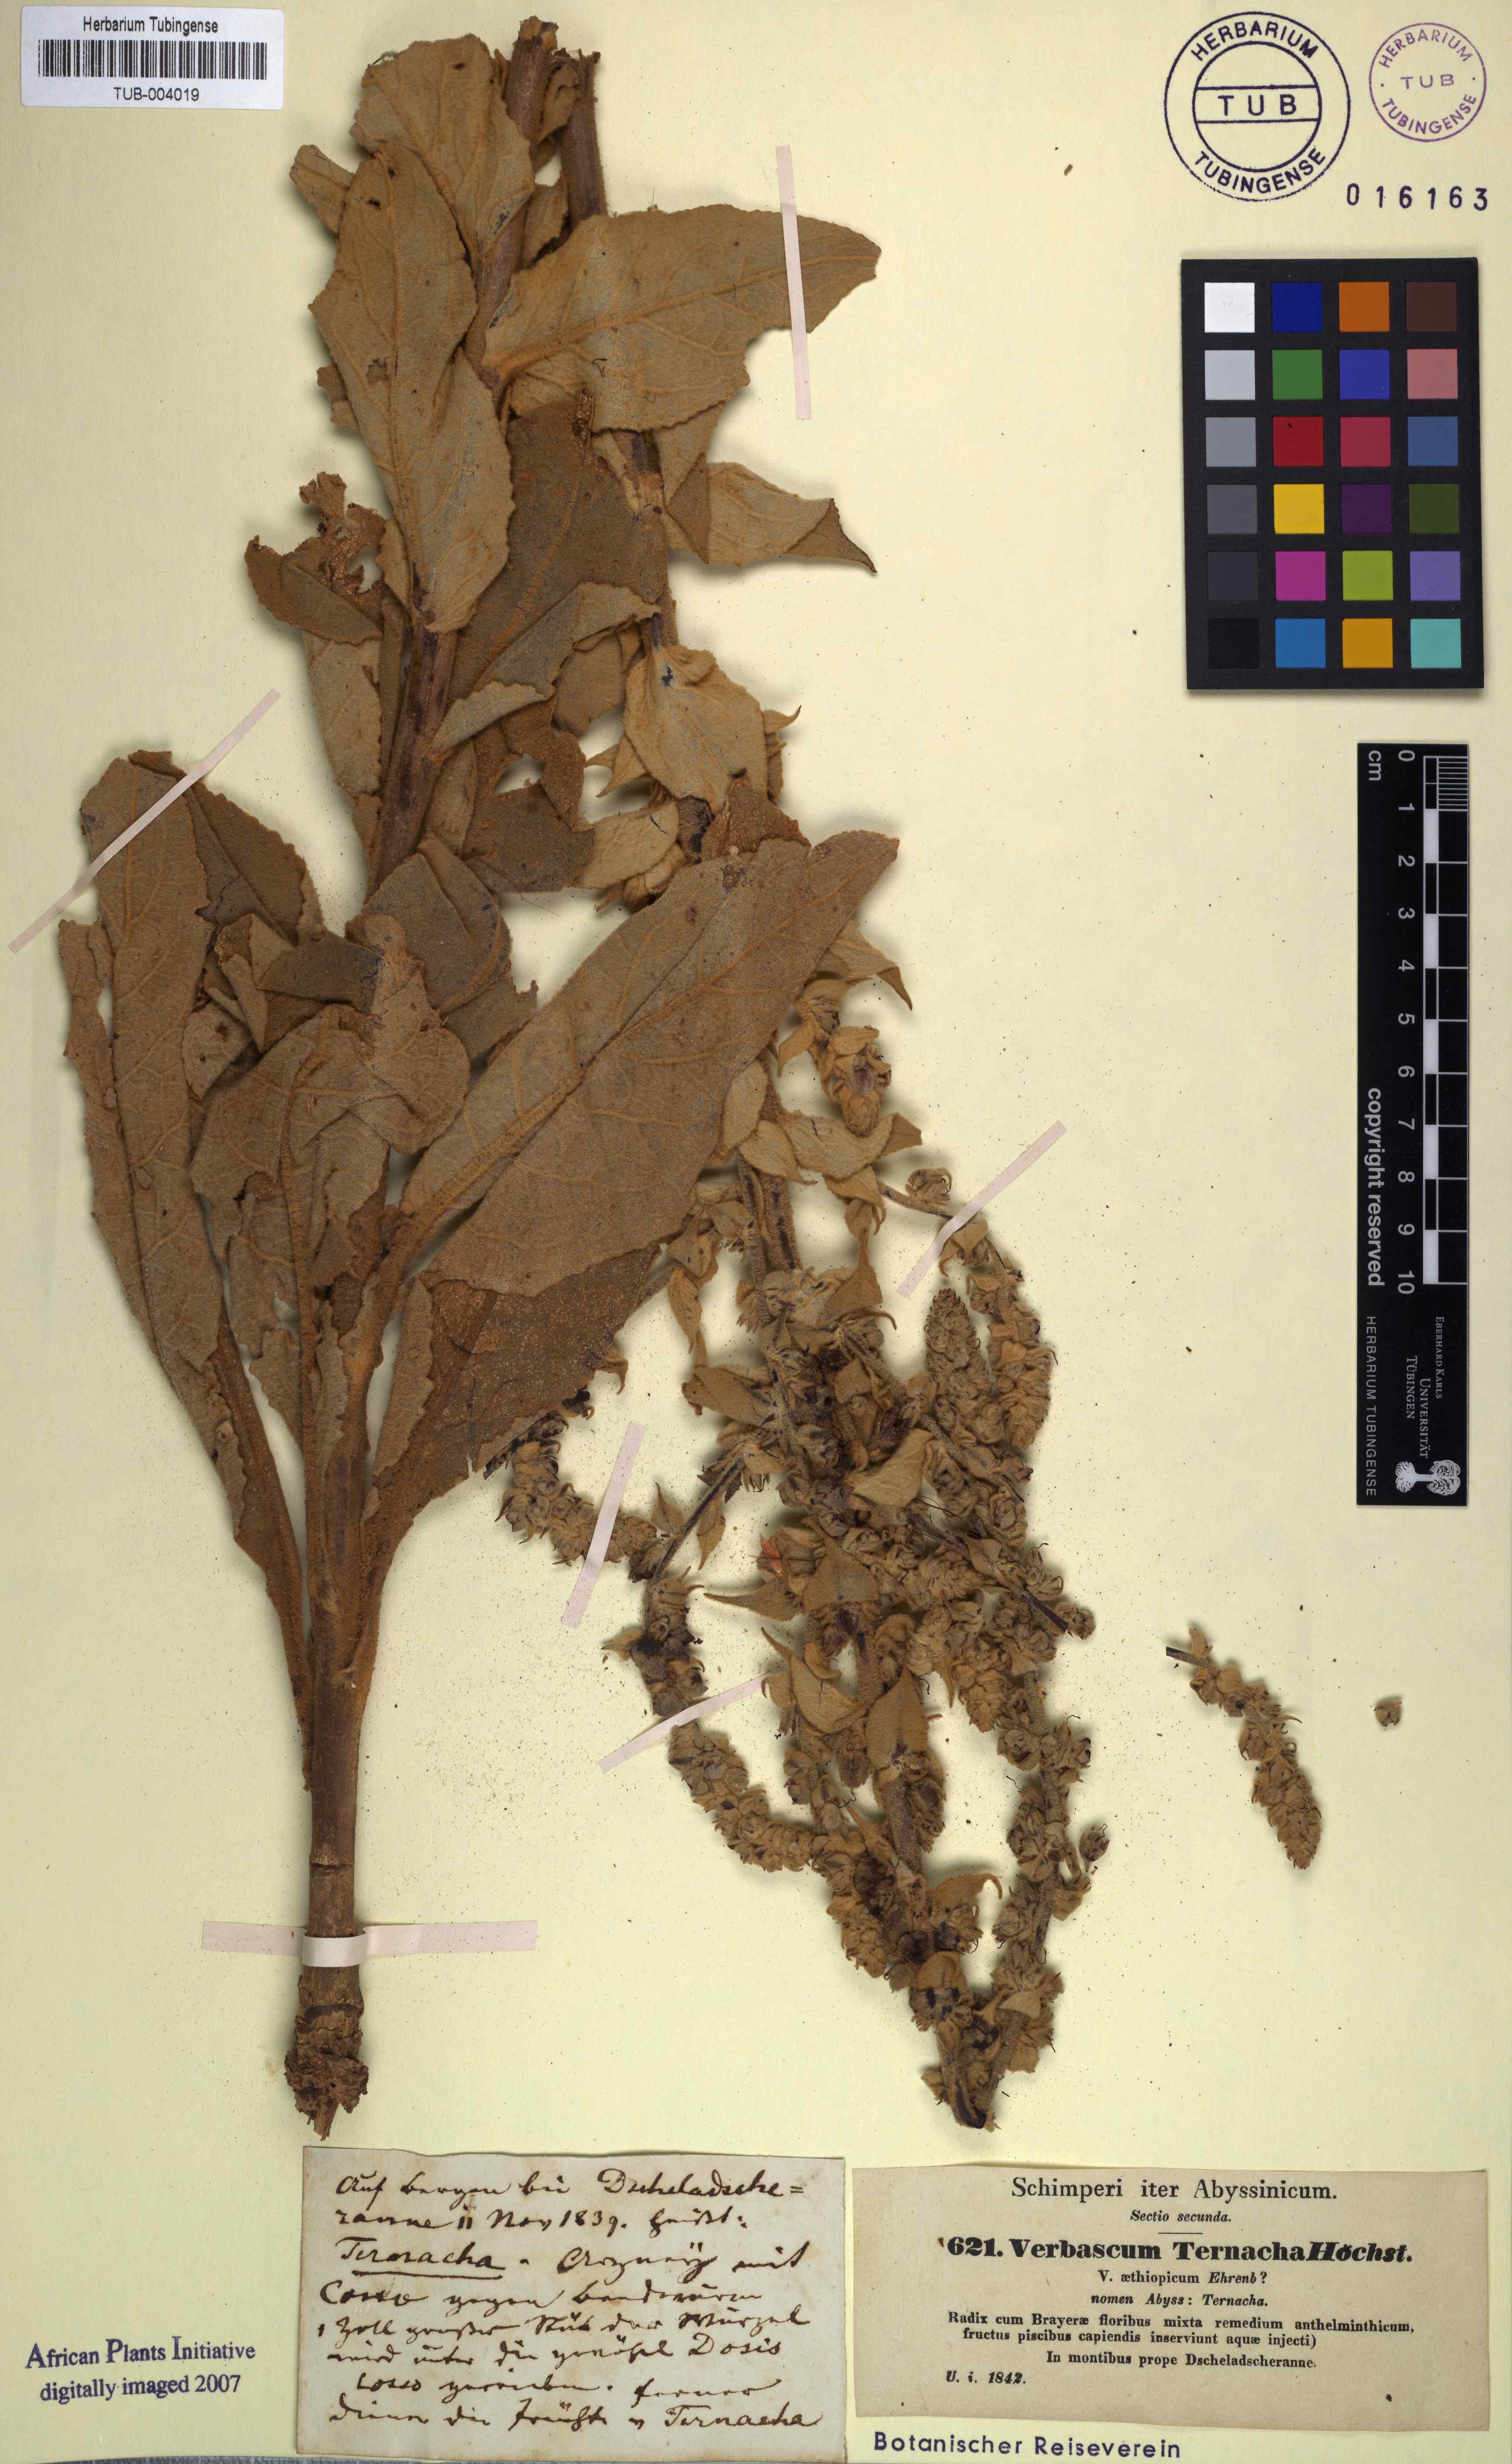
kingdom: Plantae
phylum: Tracheophyta
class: Magnoliopsida
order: Lamiales
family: Scrophulariaceae
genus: Verbascum
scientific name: Verbascum phlomoides
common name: Orange mullein
